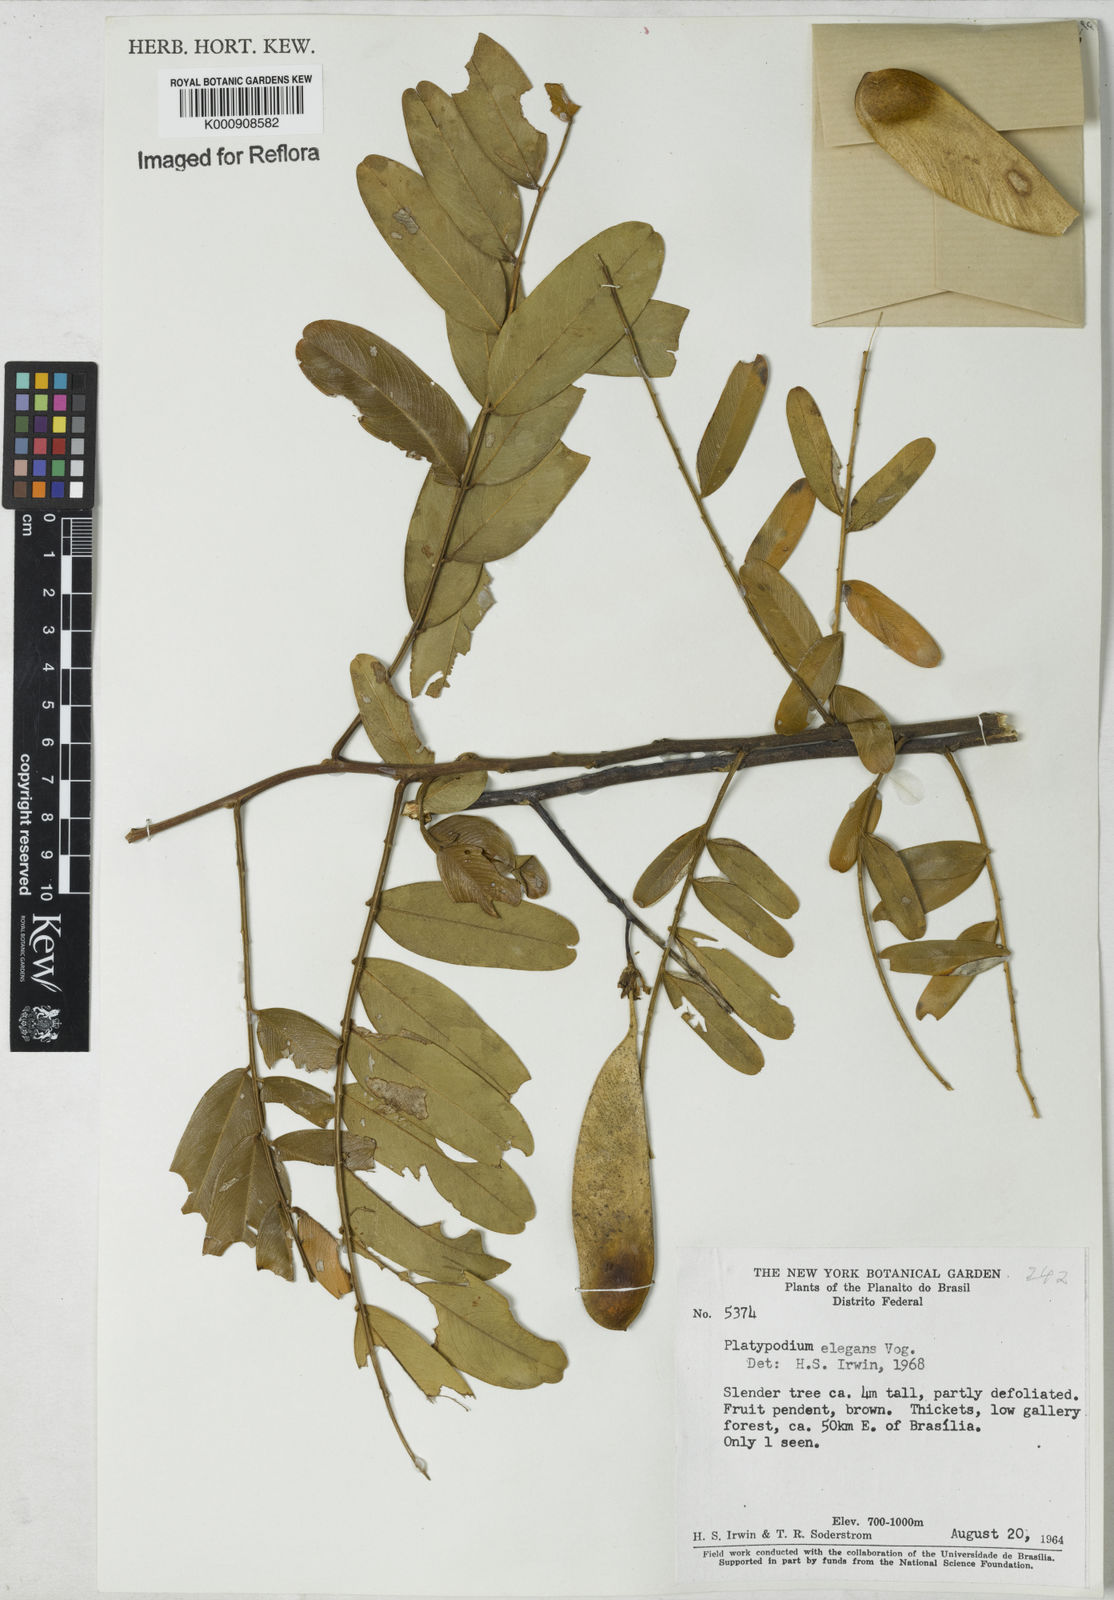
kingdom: Plantae
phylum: Tracheophyta
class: Magnoliopsida
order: Fabales
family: Fabaceae
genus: Platypodium
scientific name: Platypodium
